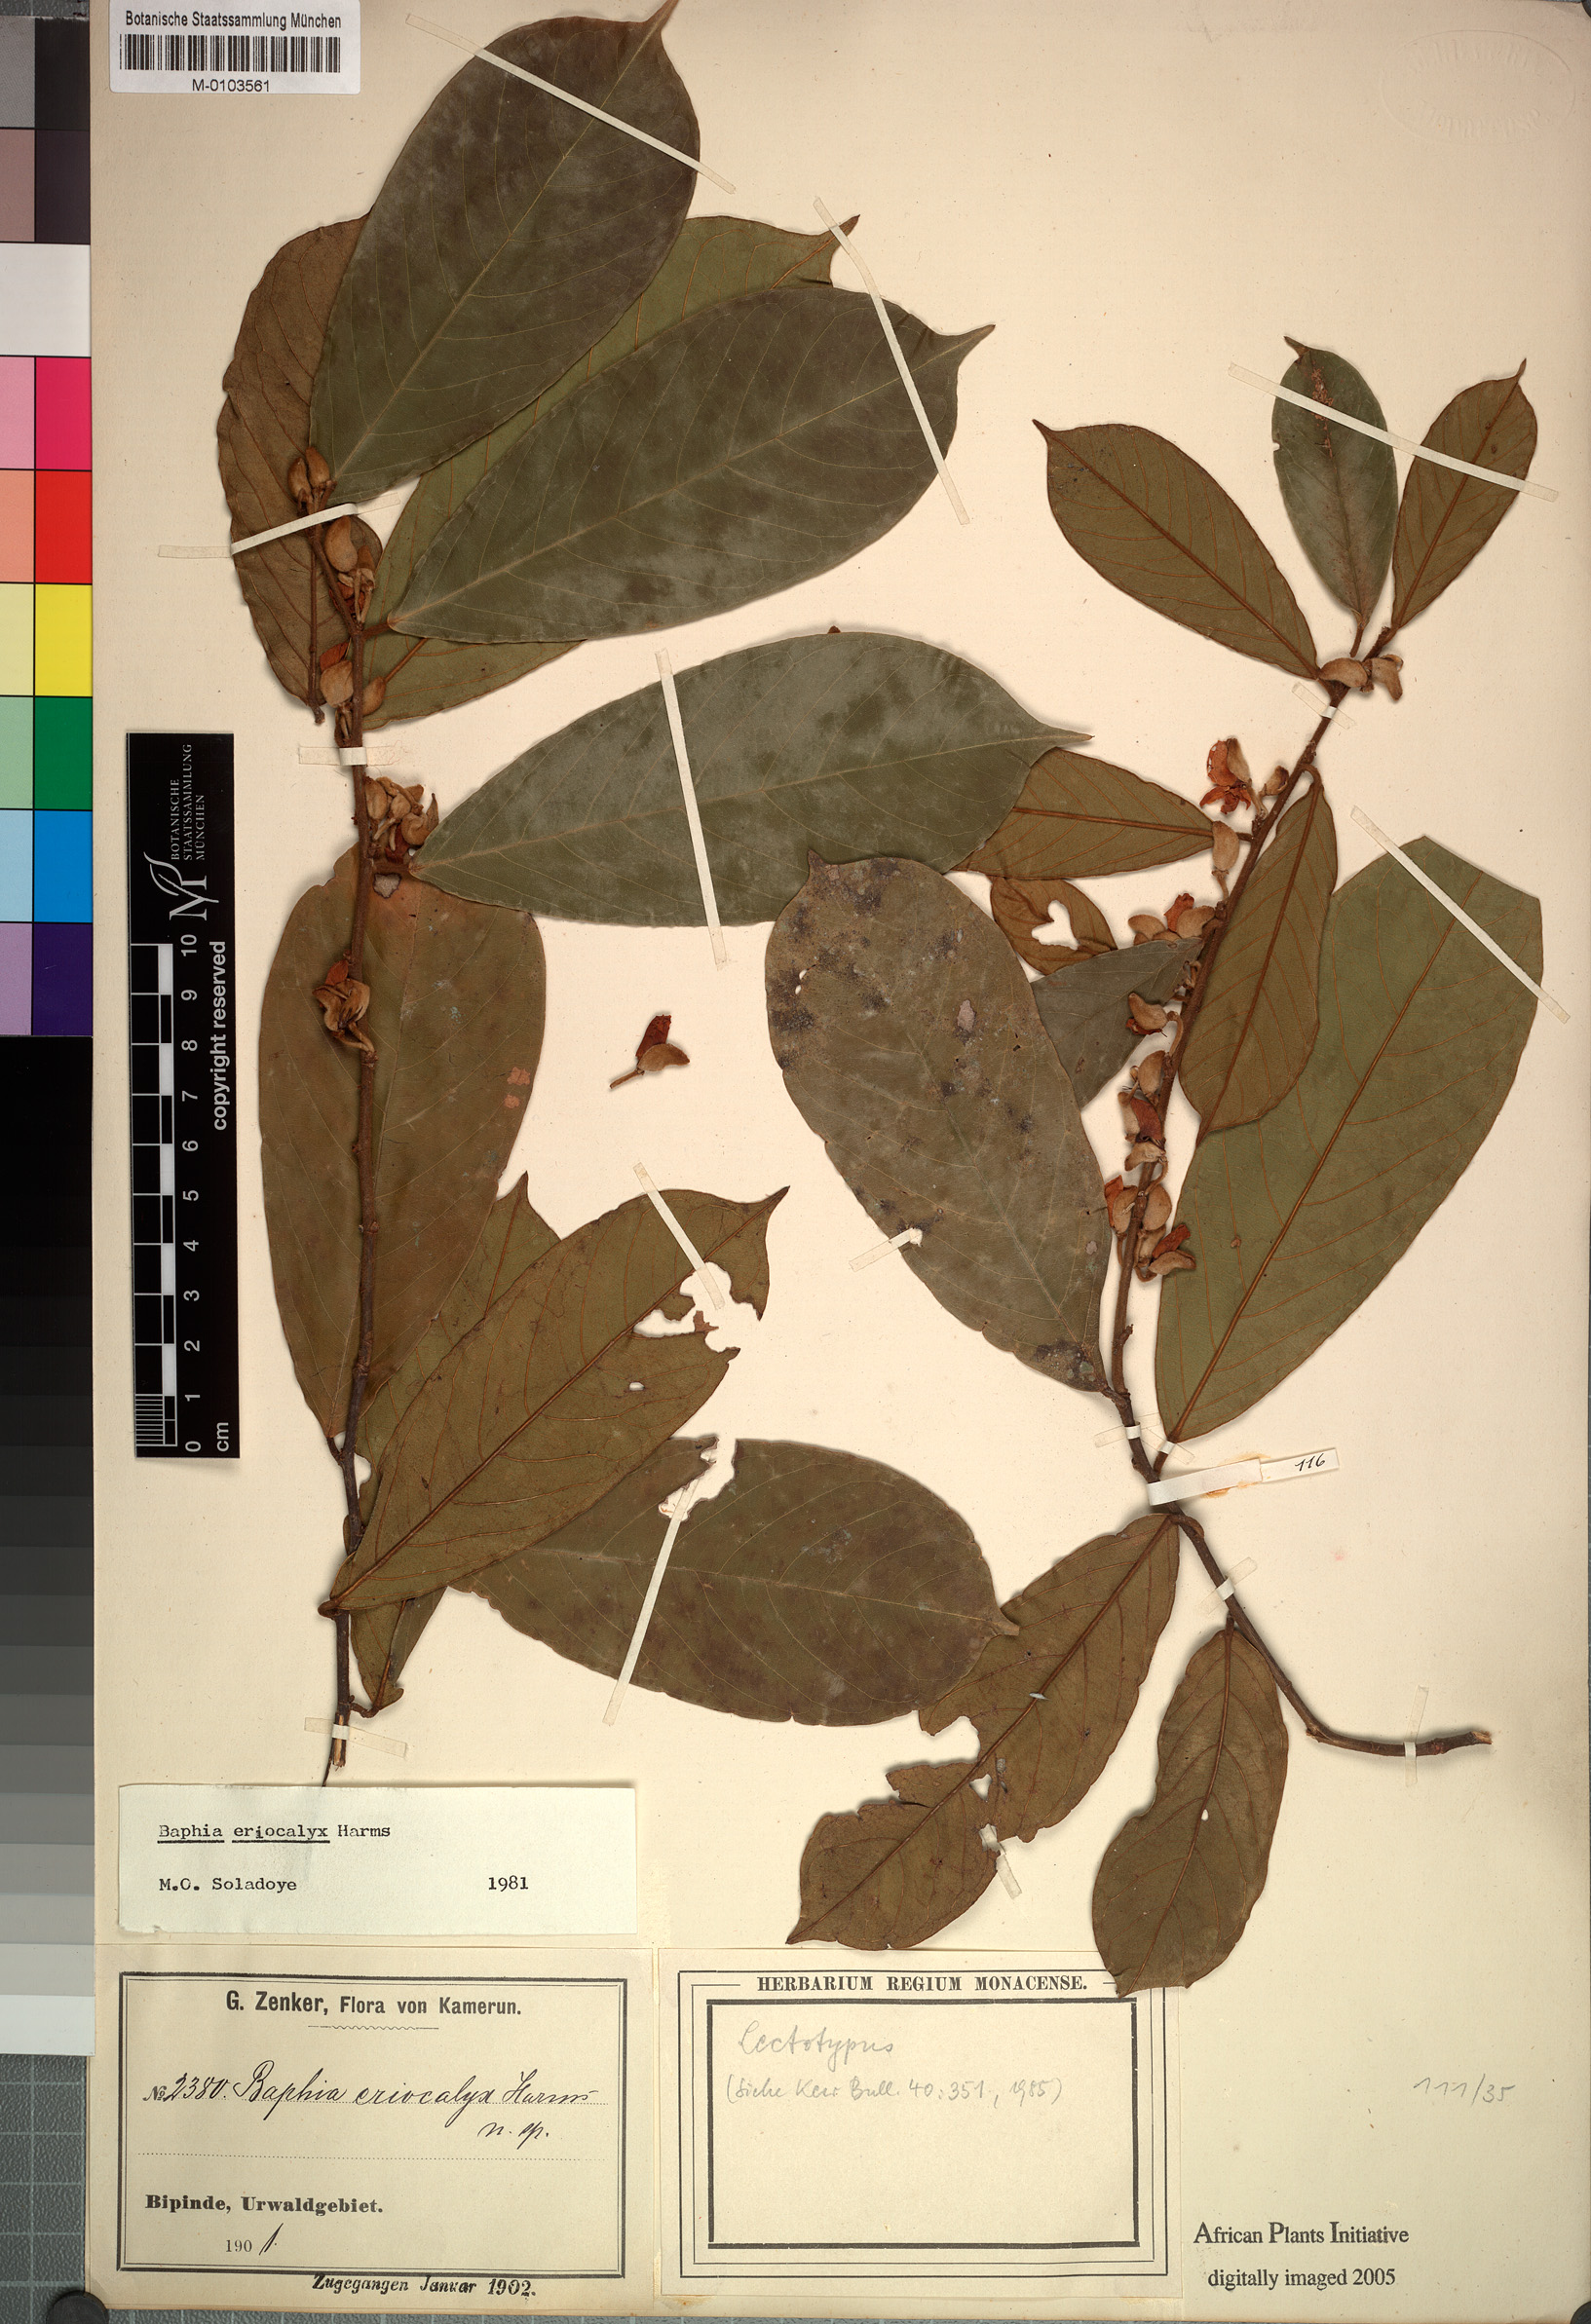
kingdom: Plantae
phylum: Tracheophyta
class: Magnoliopsida
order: Fabales
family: Fabaceae
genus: Baphia
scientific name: Baphia eriocalyx
